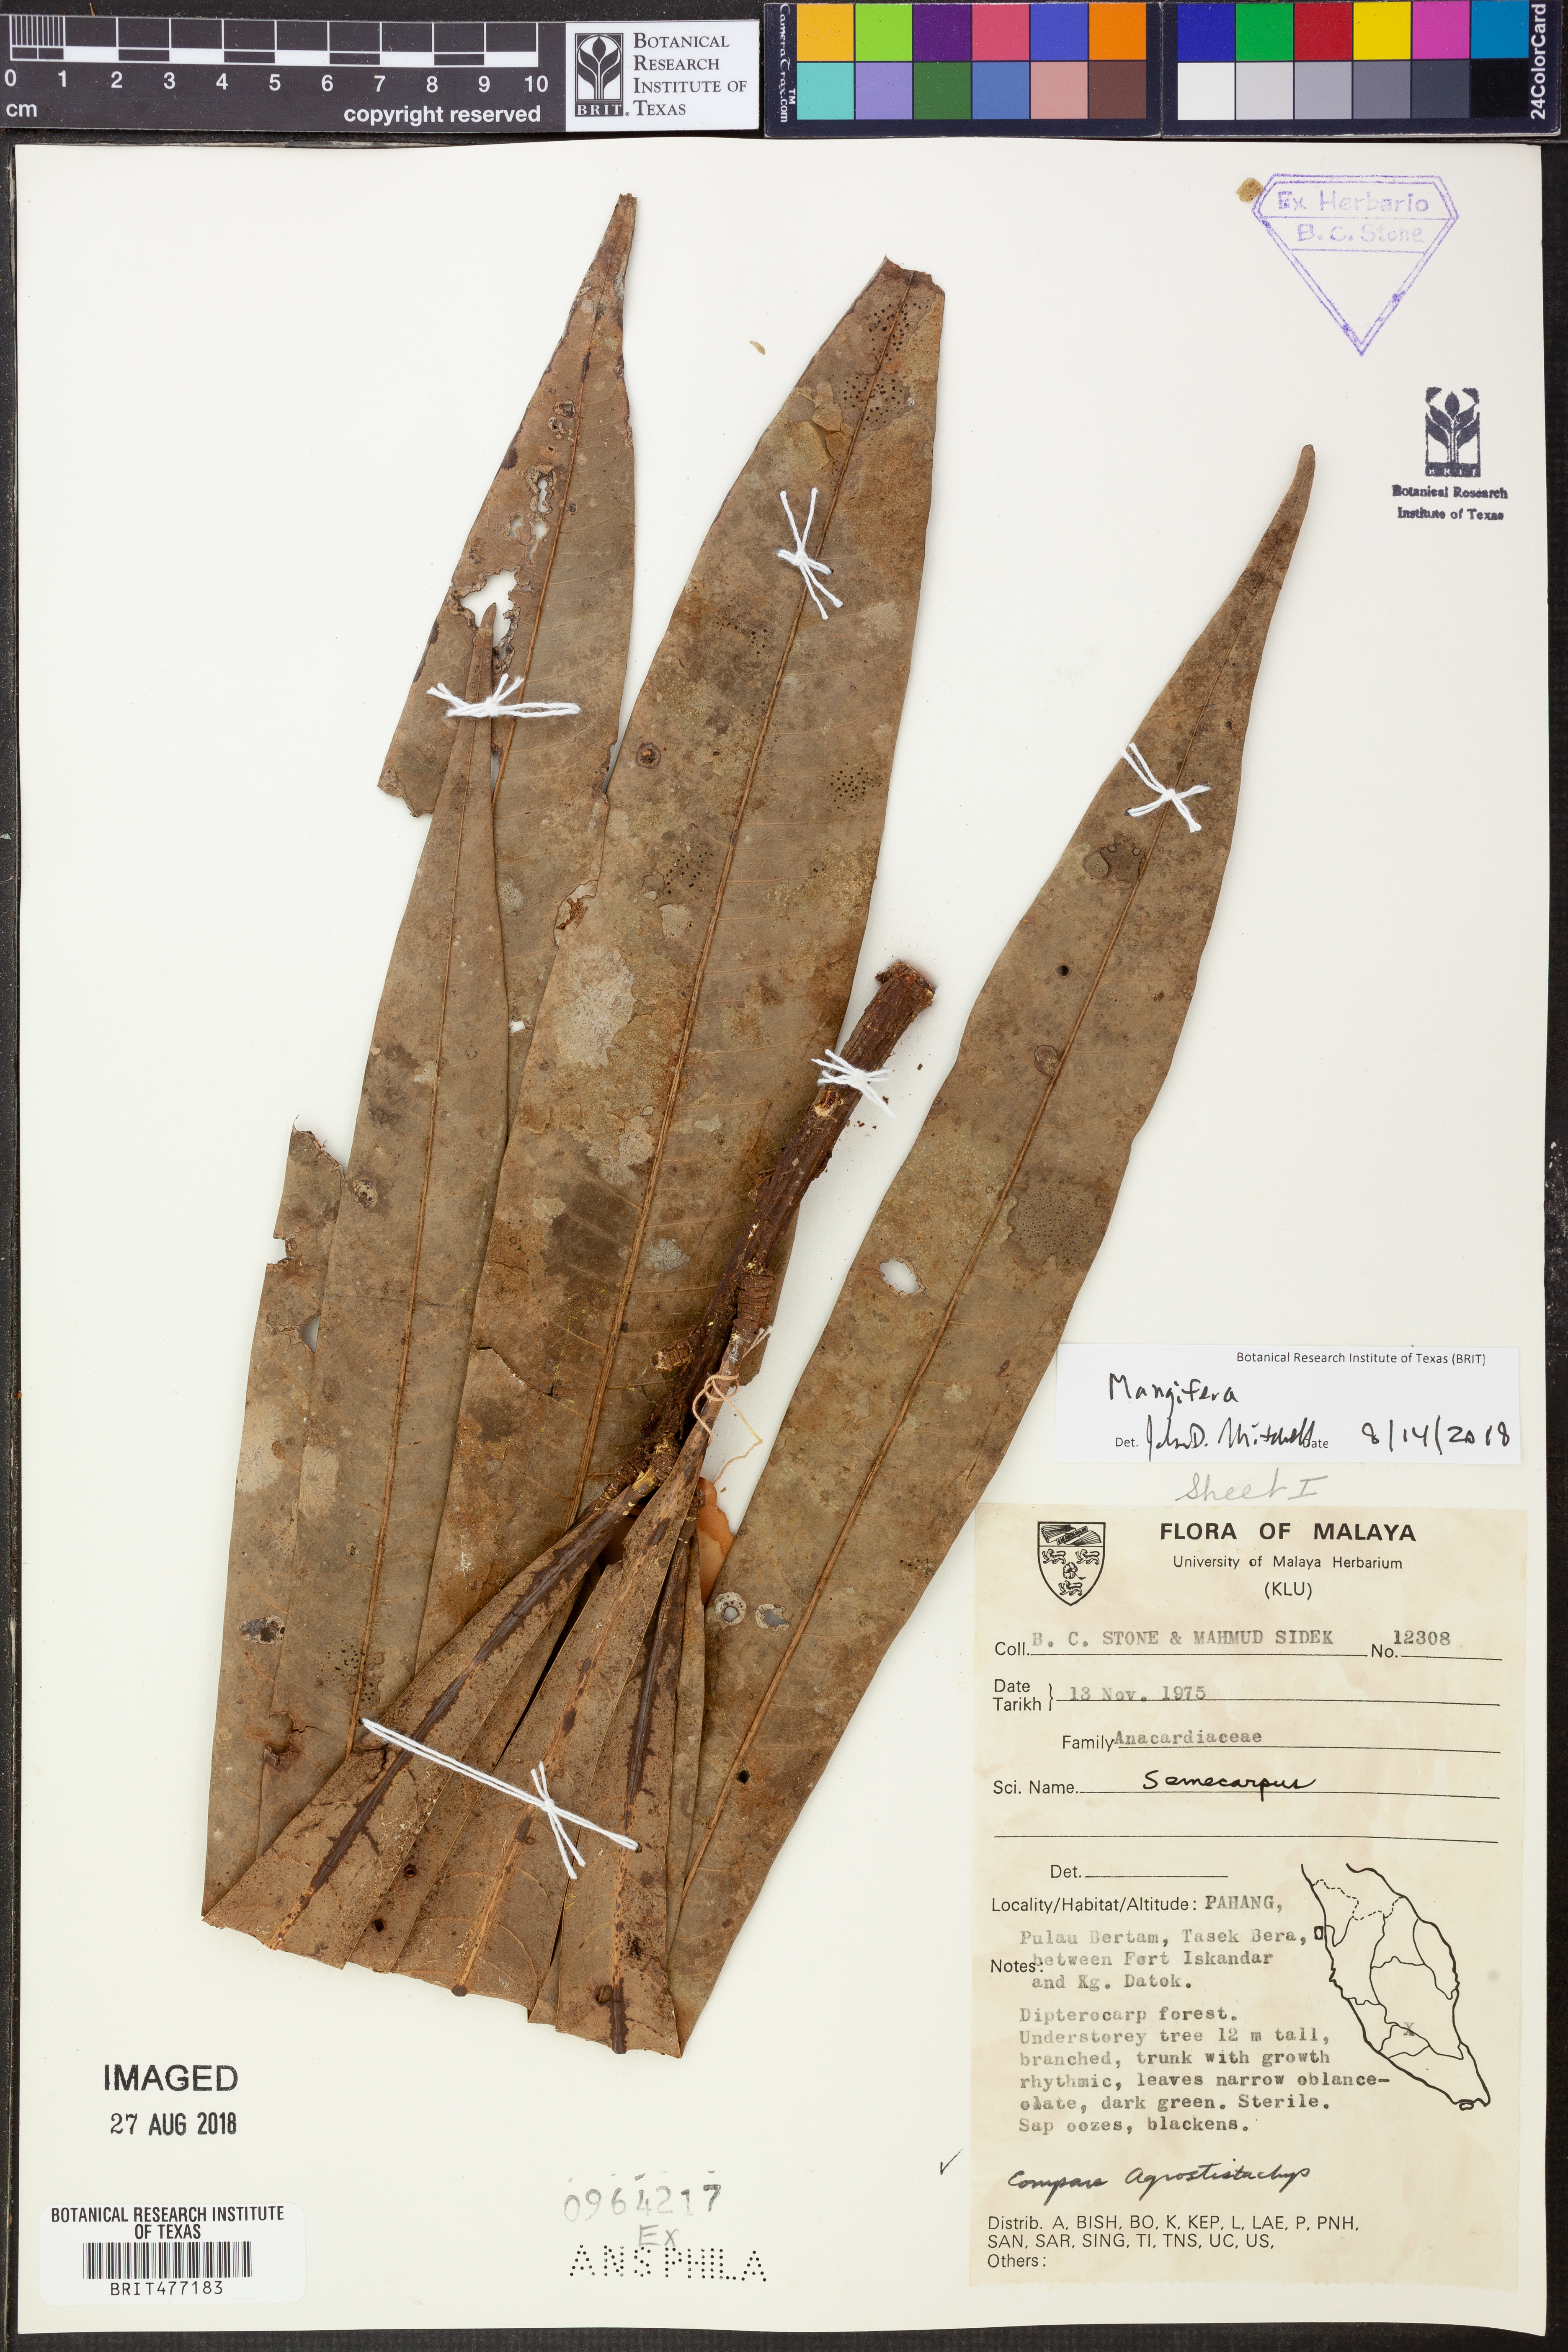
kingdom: Plantae
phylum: Tracheophyta
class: Magnoliopsida
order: Sapindales
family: Anacardiaceae
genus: Mangifera
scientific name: Mangifera
